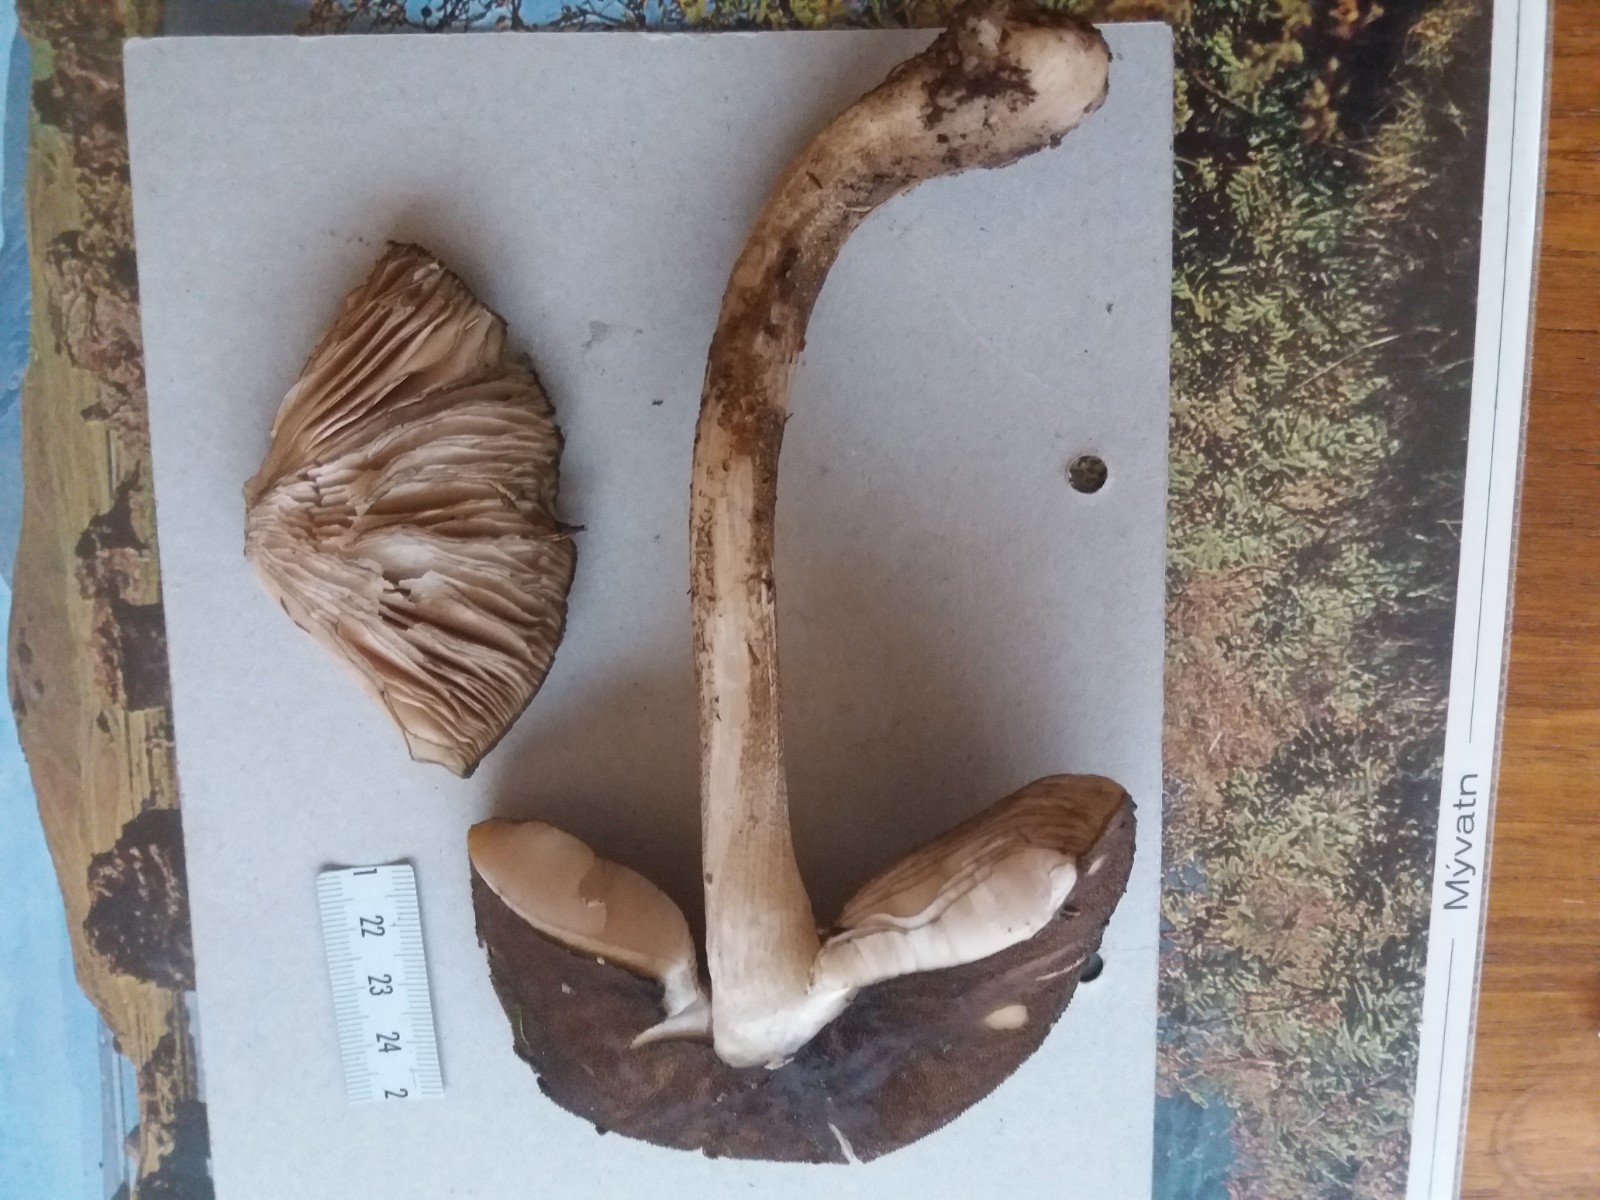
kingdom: Fungi
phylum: Basidiomycota
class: Agaricomycetes
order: Agaricales
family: Pluteaceae
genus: Pluteus
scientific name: Pluteus umbrosus
